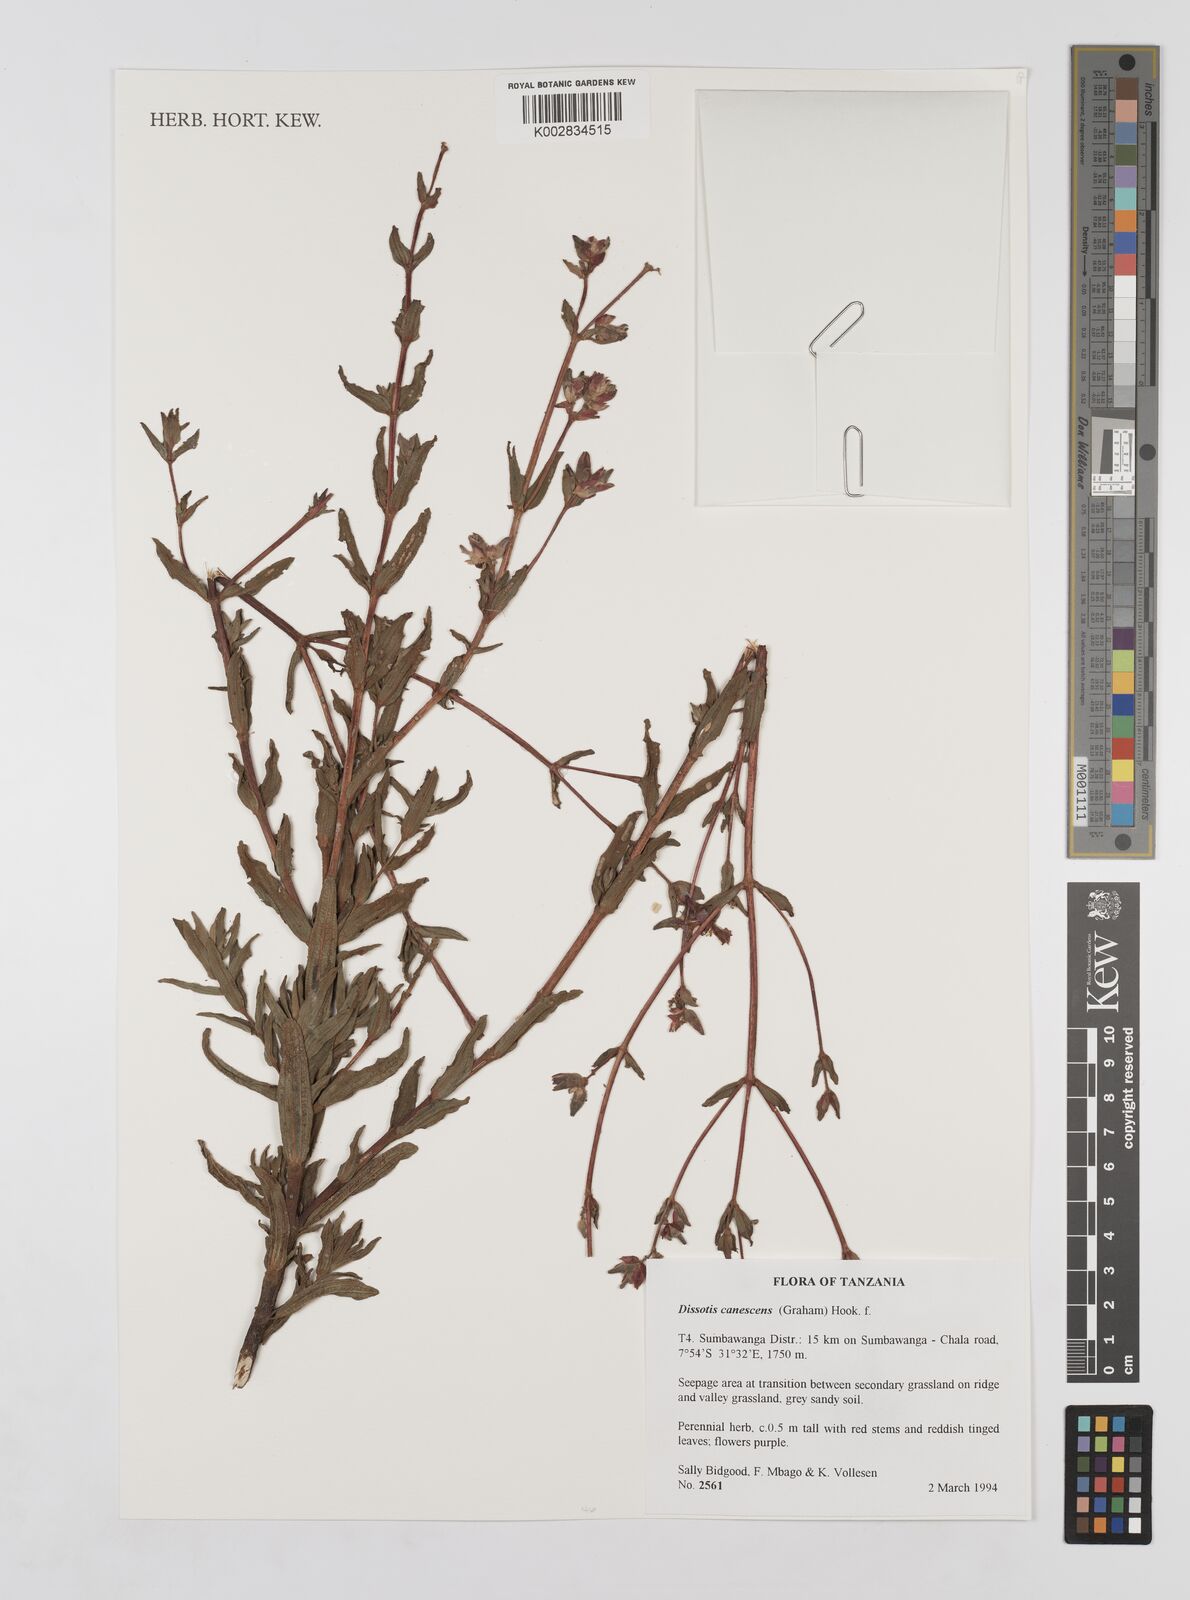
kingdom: Plantae
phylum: Tracheophyta
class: Magnoliopsida
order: Myrtales
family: Melastomataceae
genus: Argyrella
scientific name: Argyrella canescens
